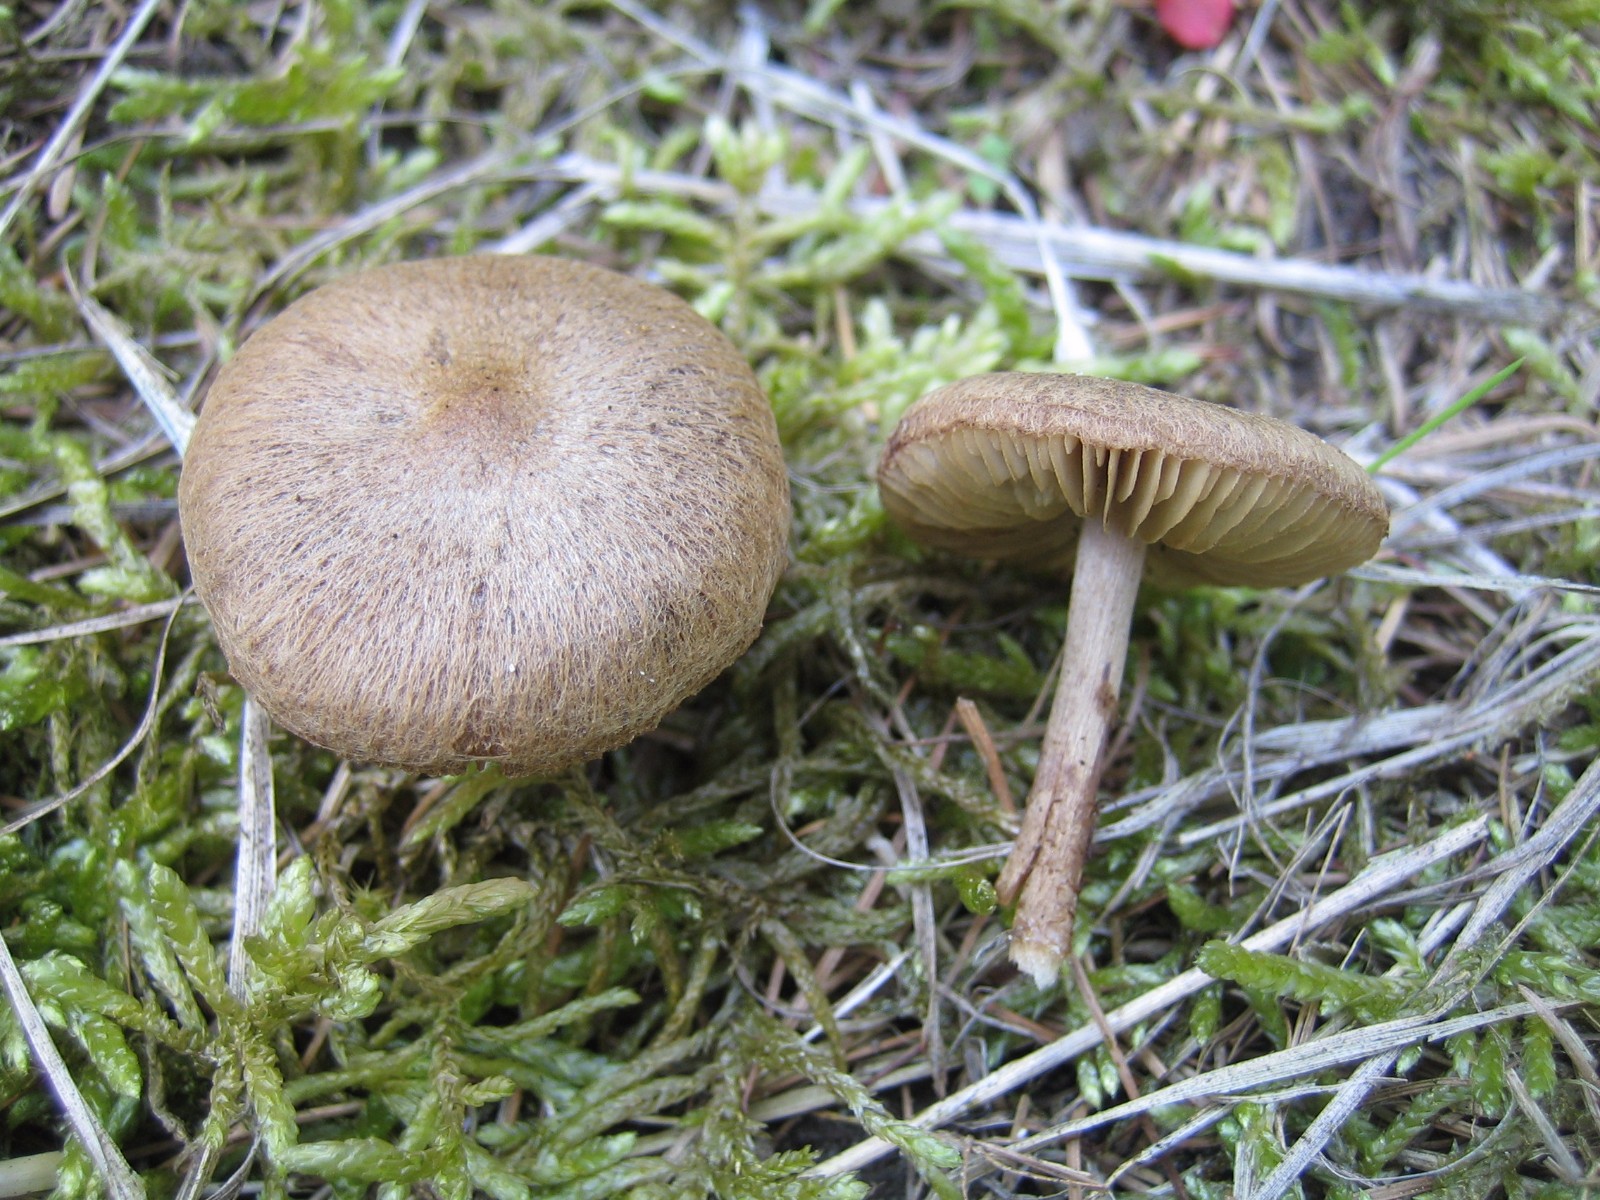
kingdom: Fungi
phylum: Basidiomycota
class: Agaricomycetes
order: Agaricales
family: Inocybaceae
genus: Inocybe
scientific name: Inocybe
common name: trævlhat
